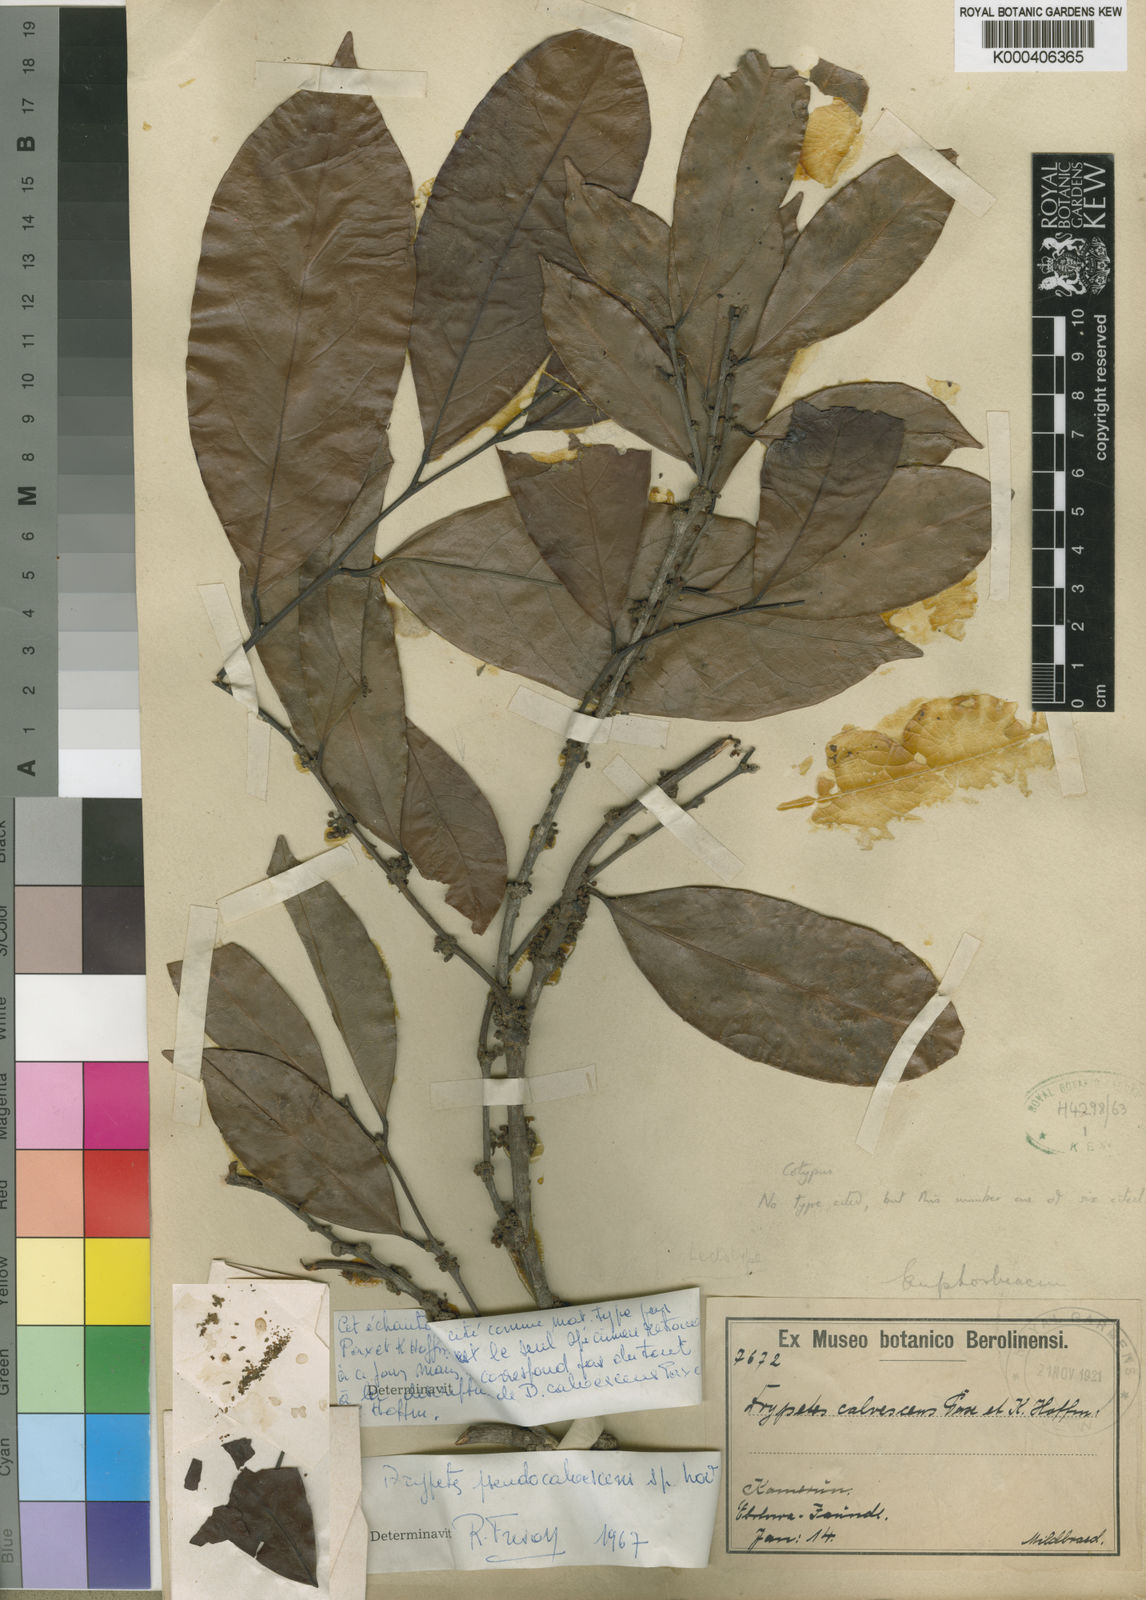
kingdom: Plantae
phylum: Tracheophyta
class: Magnoliopsida
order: Malpighiales
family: Putranjivaceae
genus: Drypetes
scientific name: Drypetes calvescens
